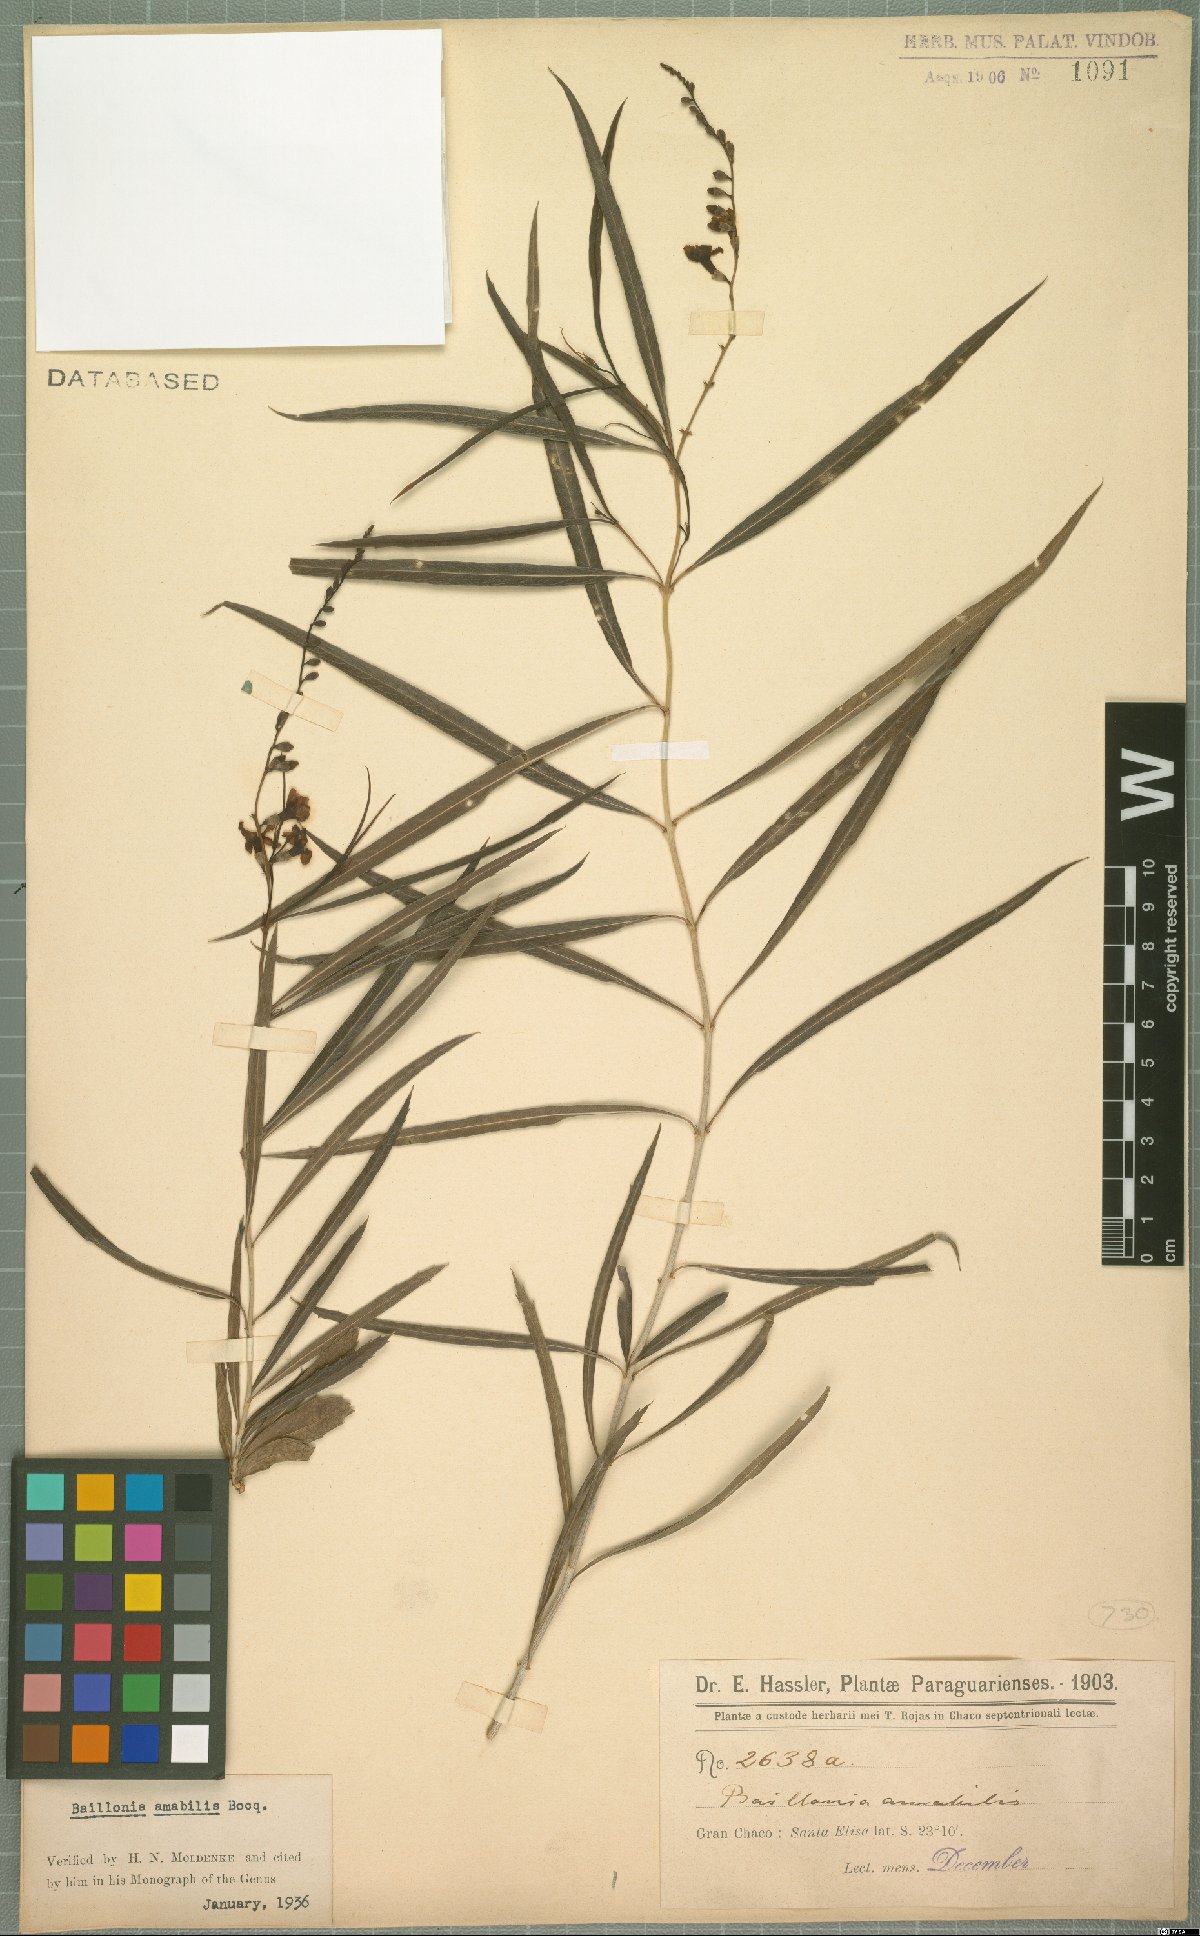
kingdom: Plantae
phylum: Tracheophyta
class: Magnoliopsida
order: Lamiales
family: Verbenaceae
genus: Citharexylum
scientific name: Citharexylum amabile
